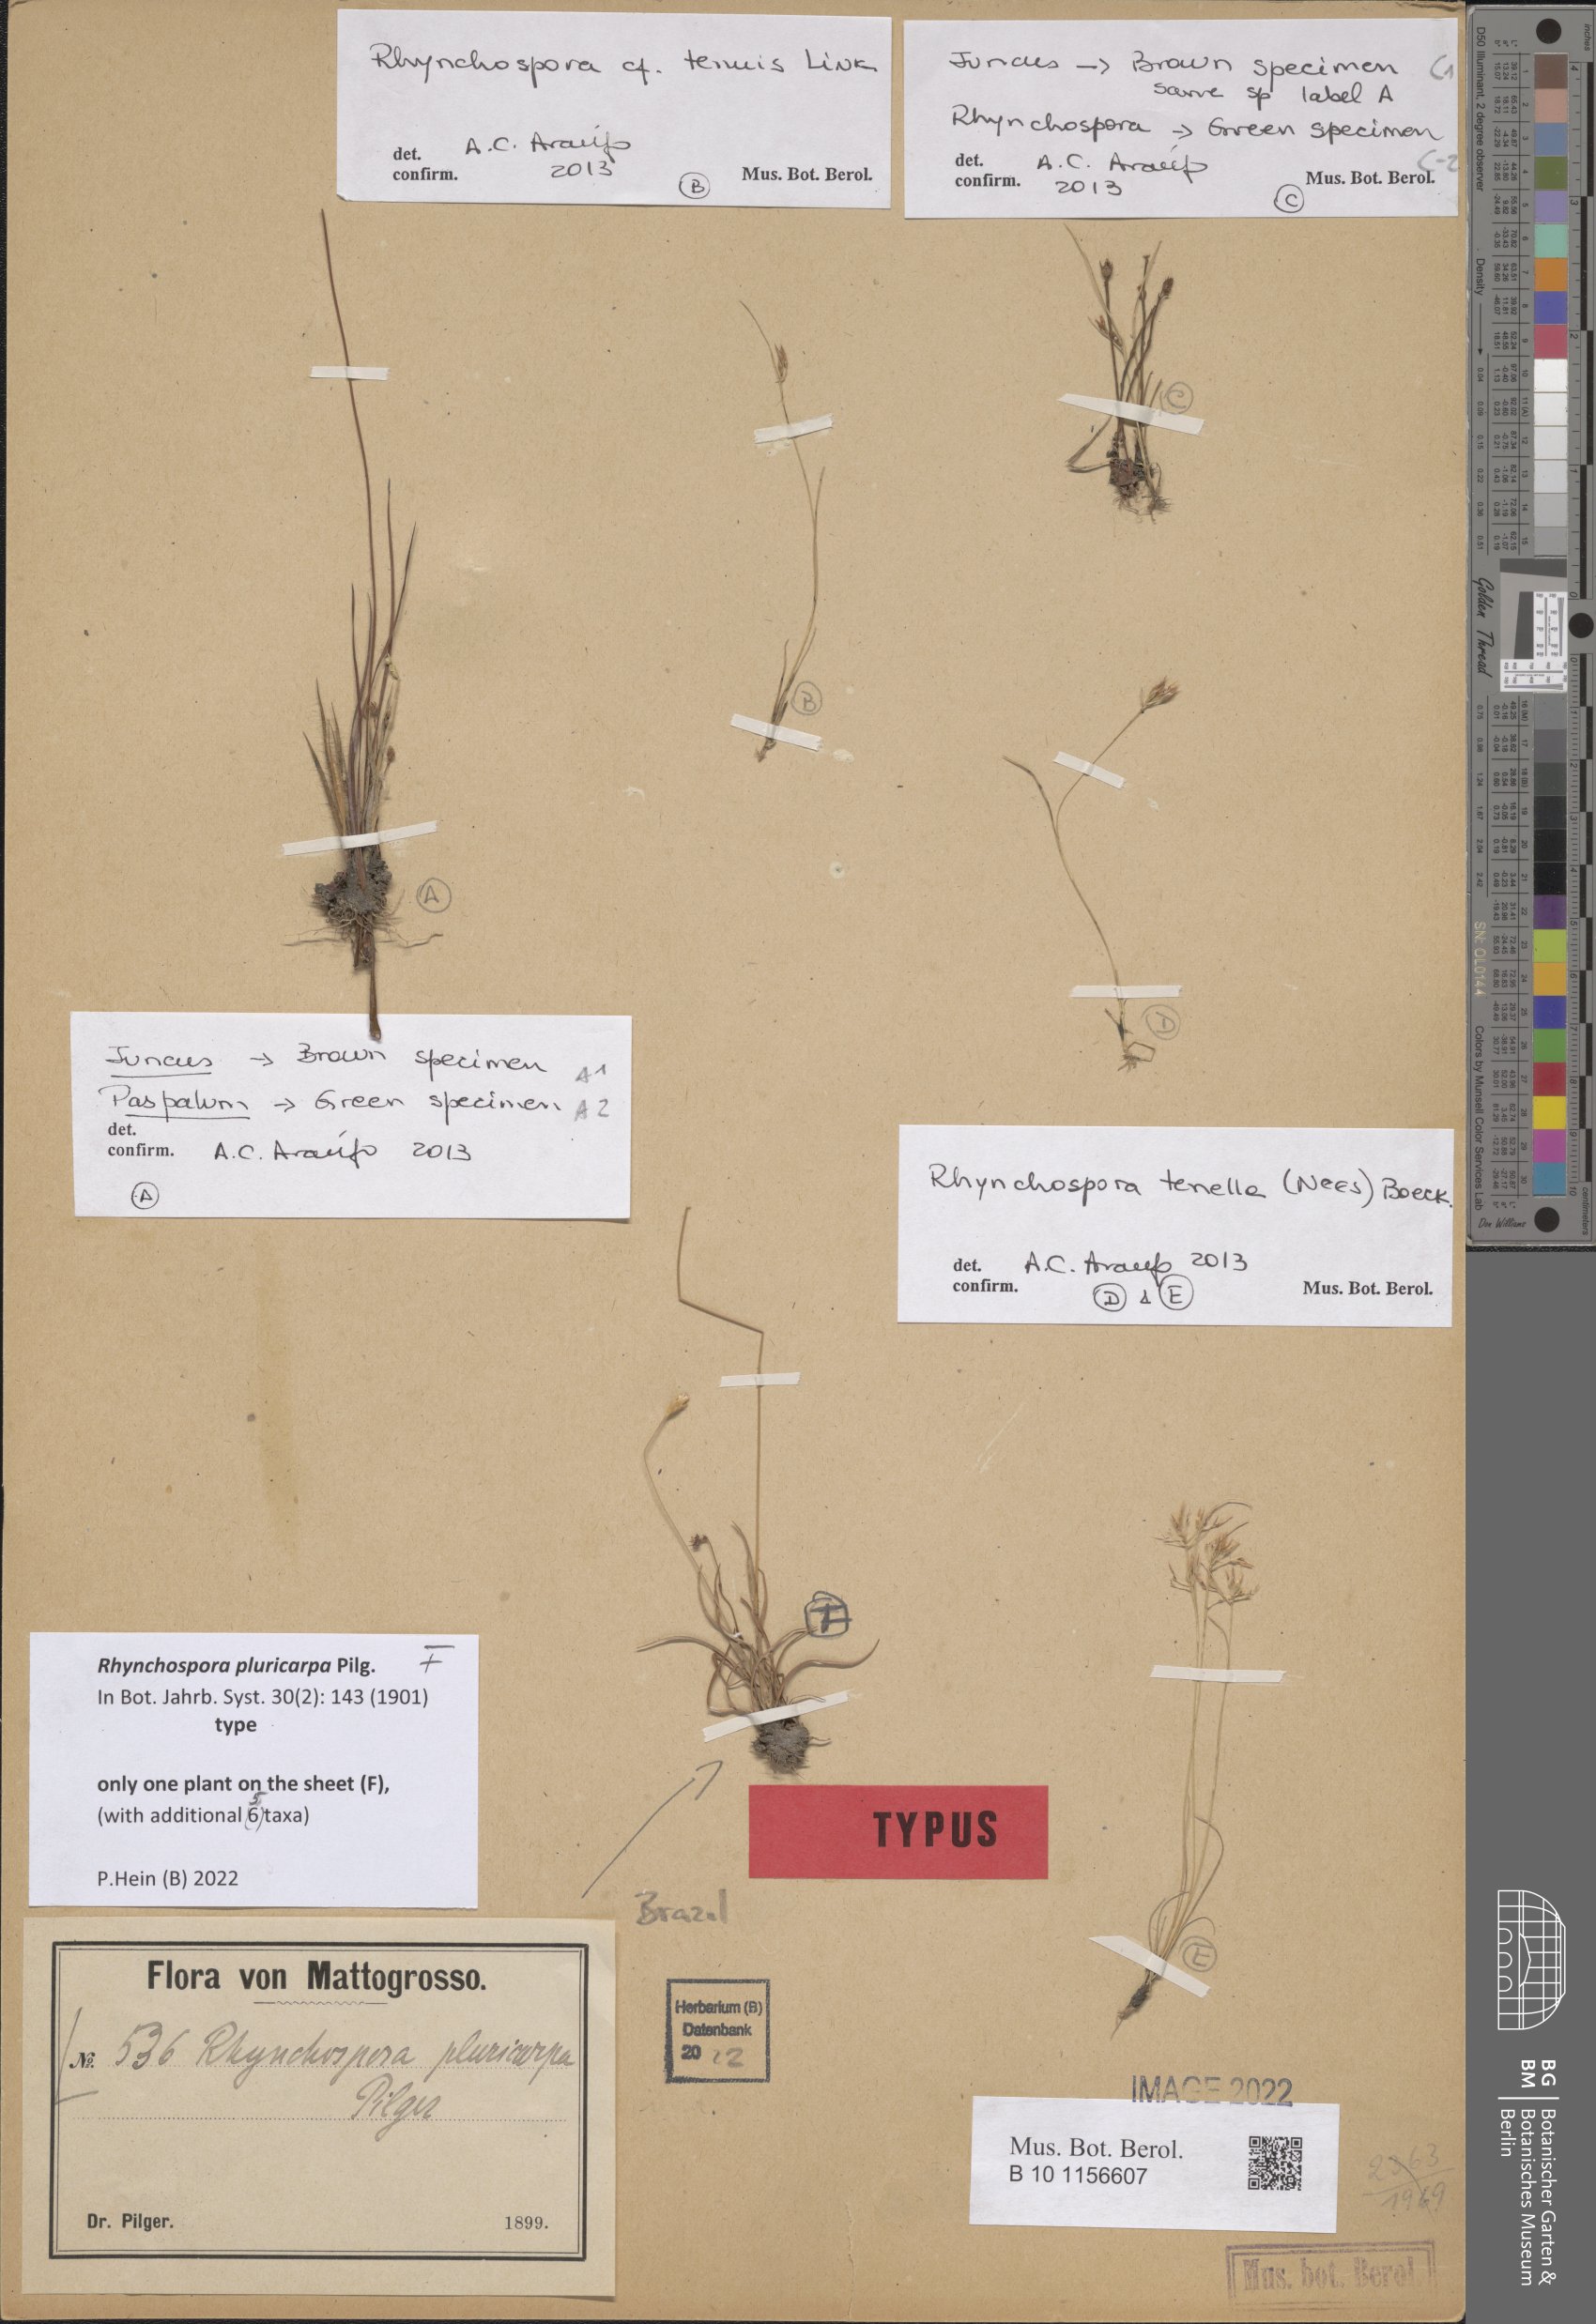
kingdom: Plantae
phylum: Tracheophyta
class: Liliopsida
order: Poales
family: Cyperaceae
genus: Rhynchospora
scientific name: Rhynchospora pluricarpa
